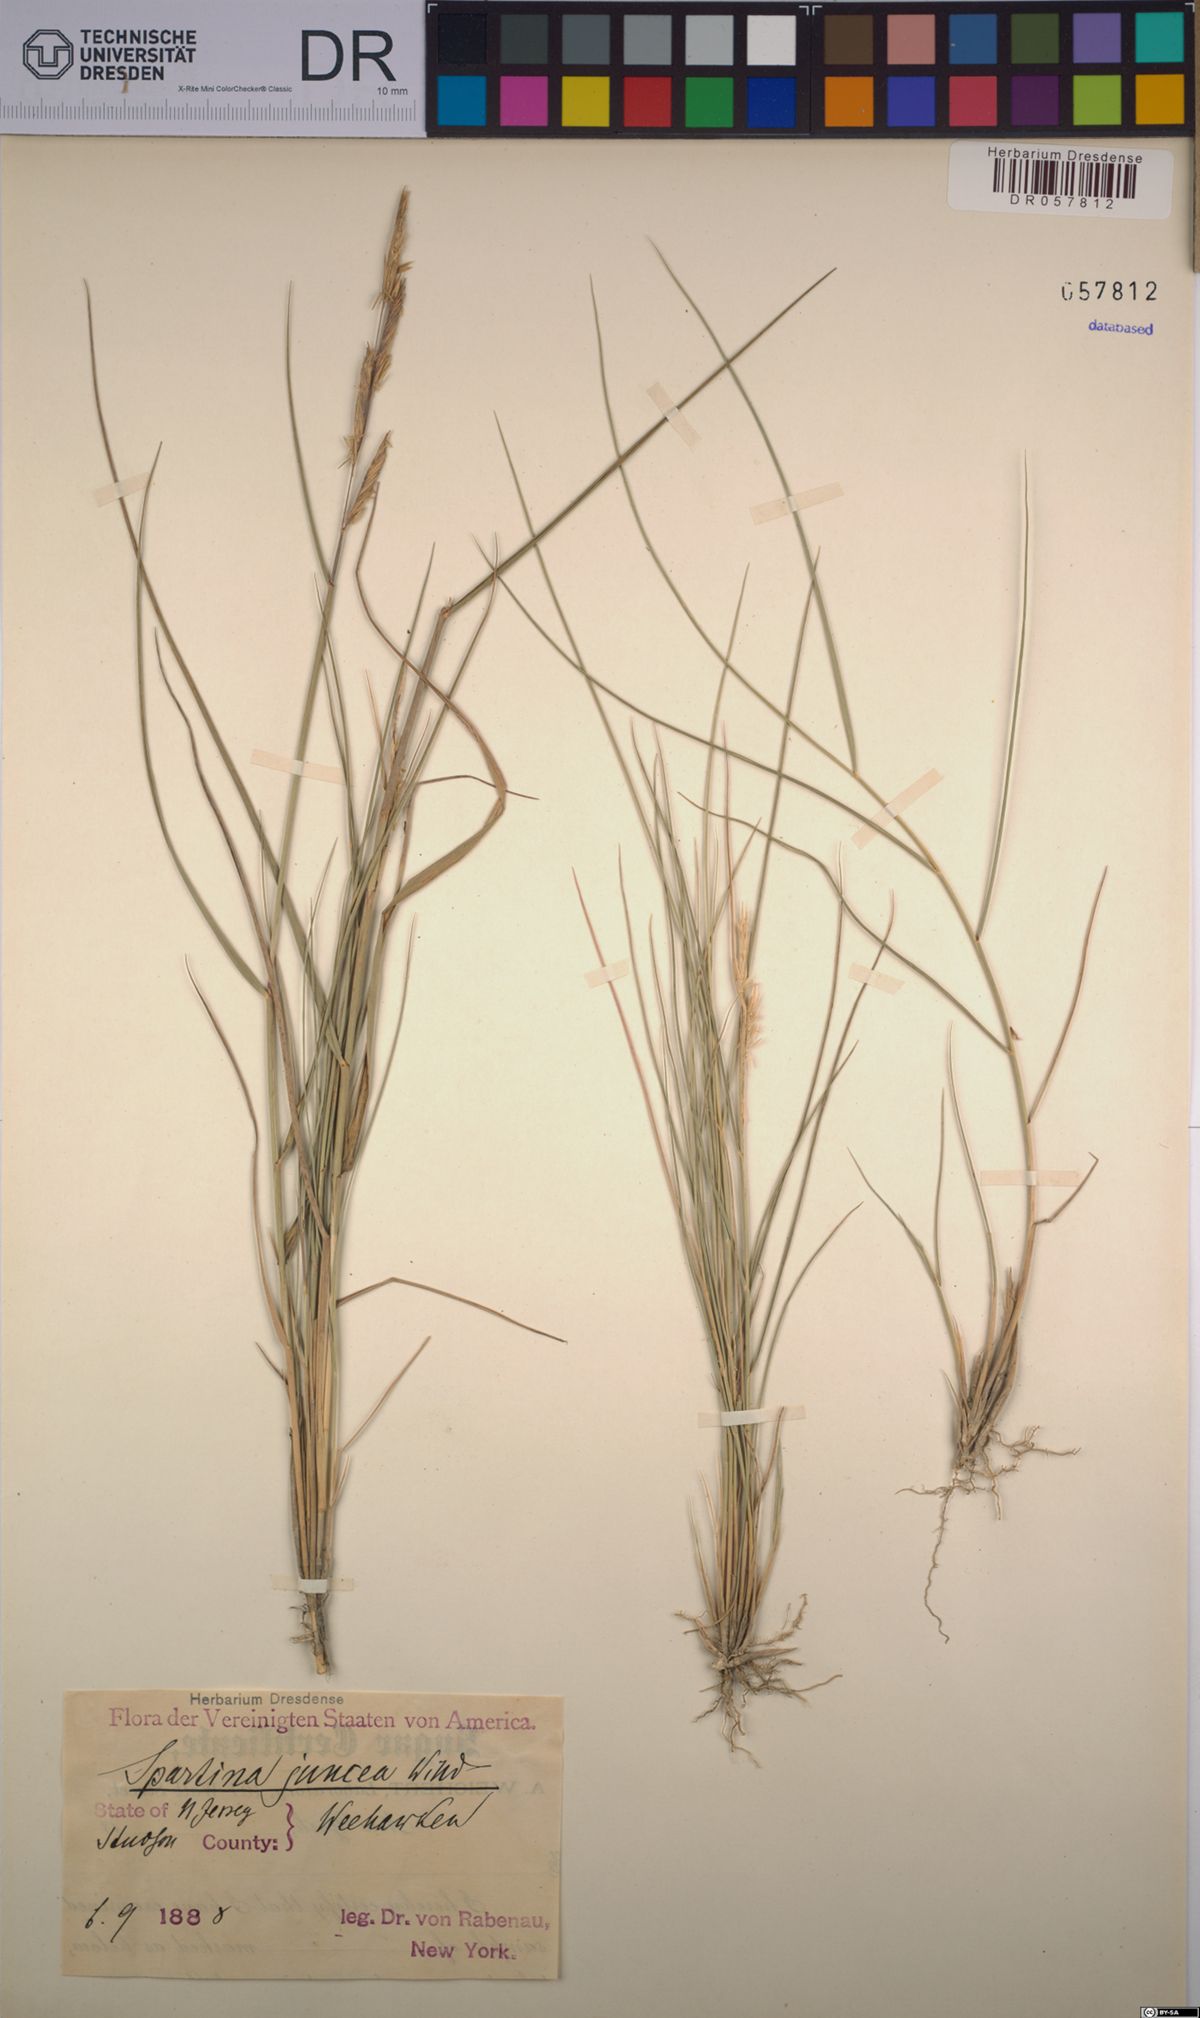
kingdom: Plantae
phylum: Tracheophyta
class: Liliopsida
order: Poales
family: Poaceae
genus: Sporobolus
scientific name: Sporobolus pumilus
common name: Highwater grass
